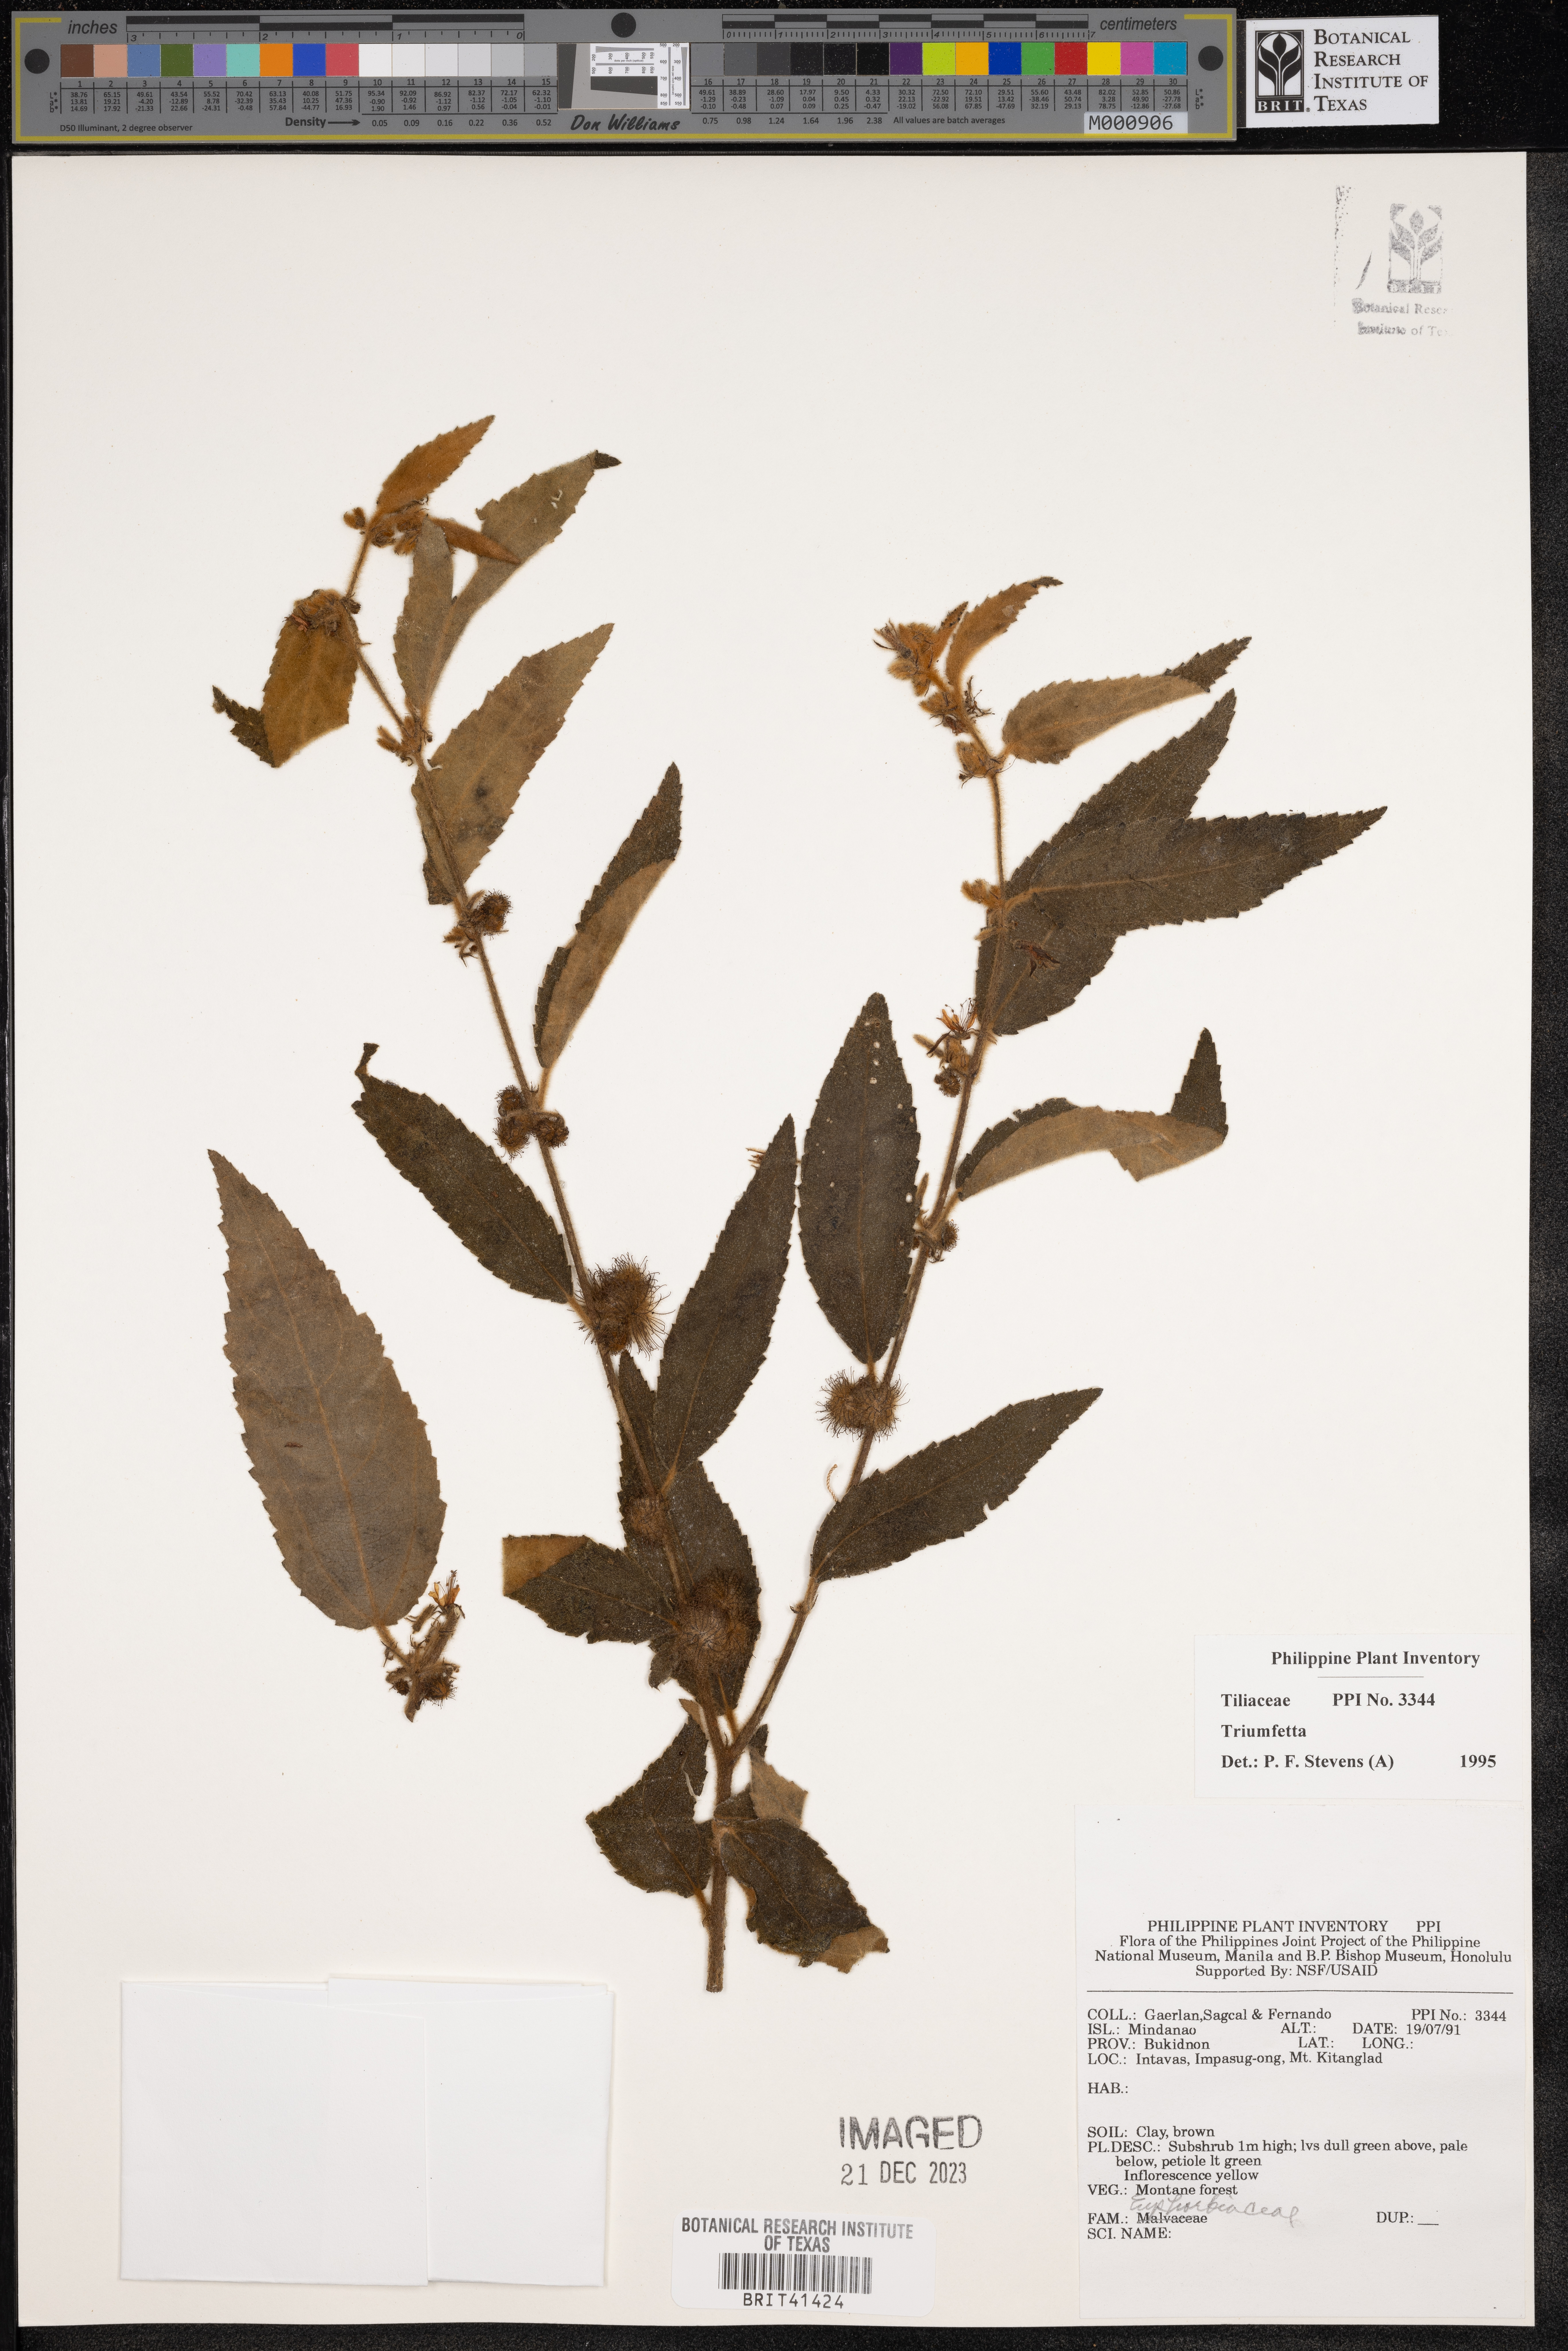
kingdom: Plantae
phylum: Tracheophyta
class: Magnoliopsida
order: Malvales
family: Malvaceae
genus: Triumfetta
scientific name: Triumfetta
